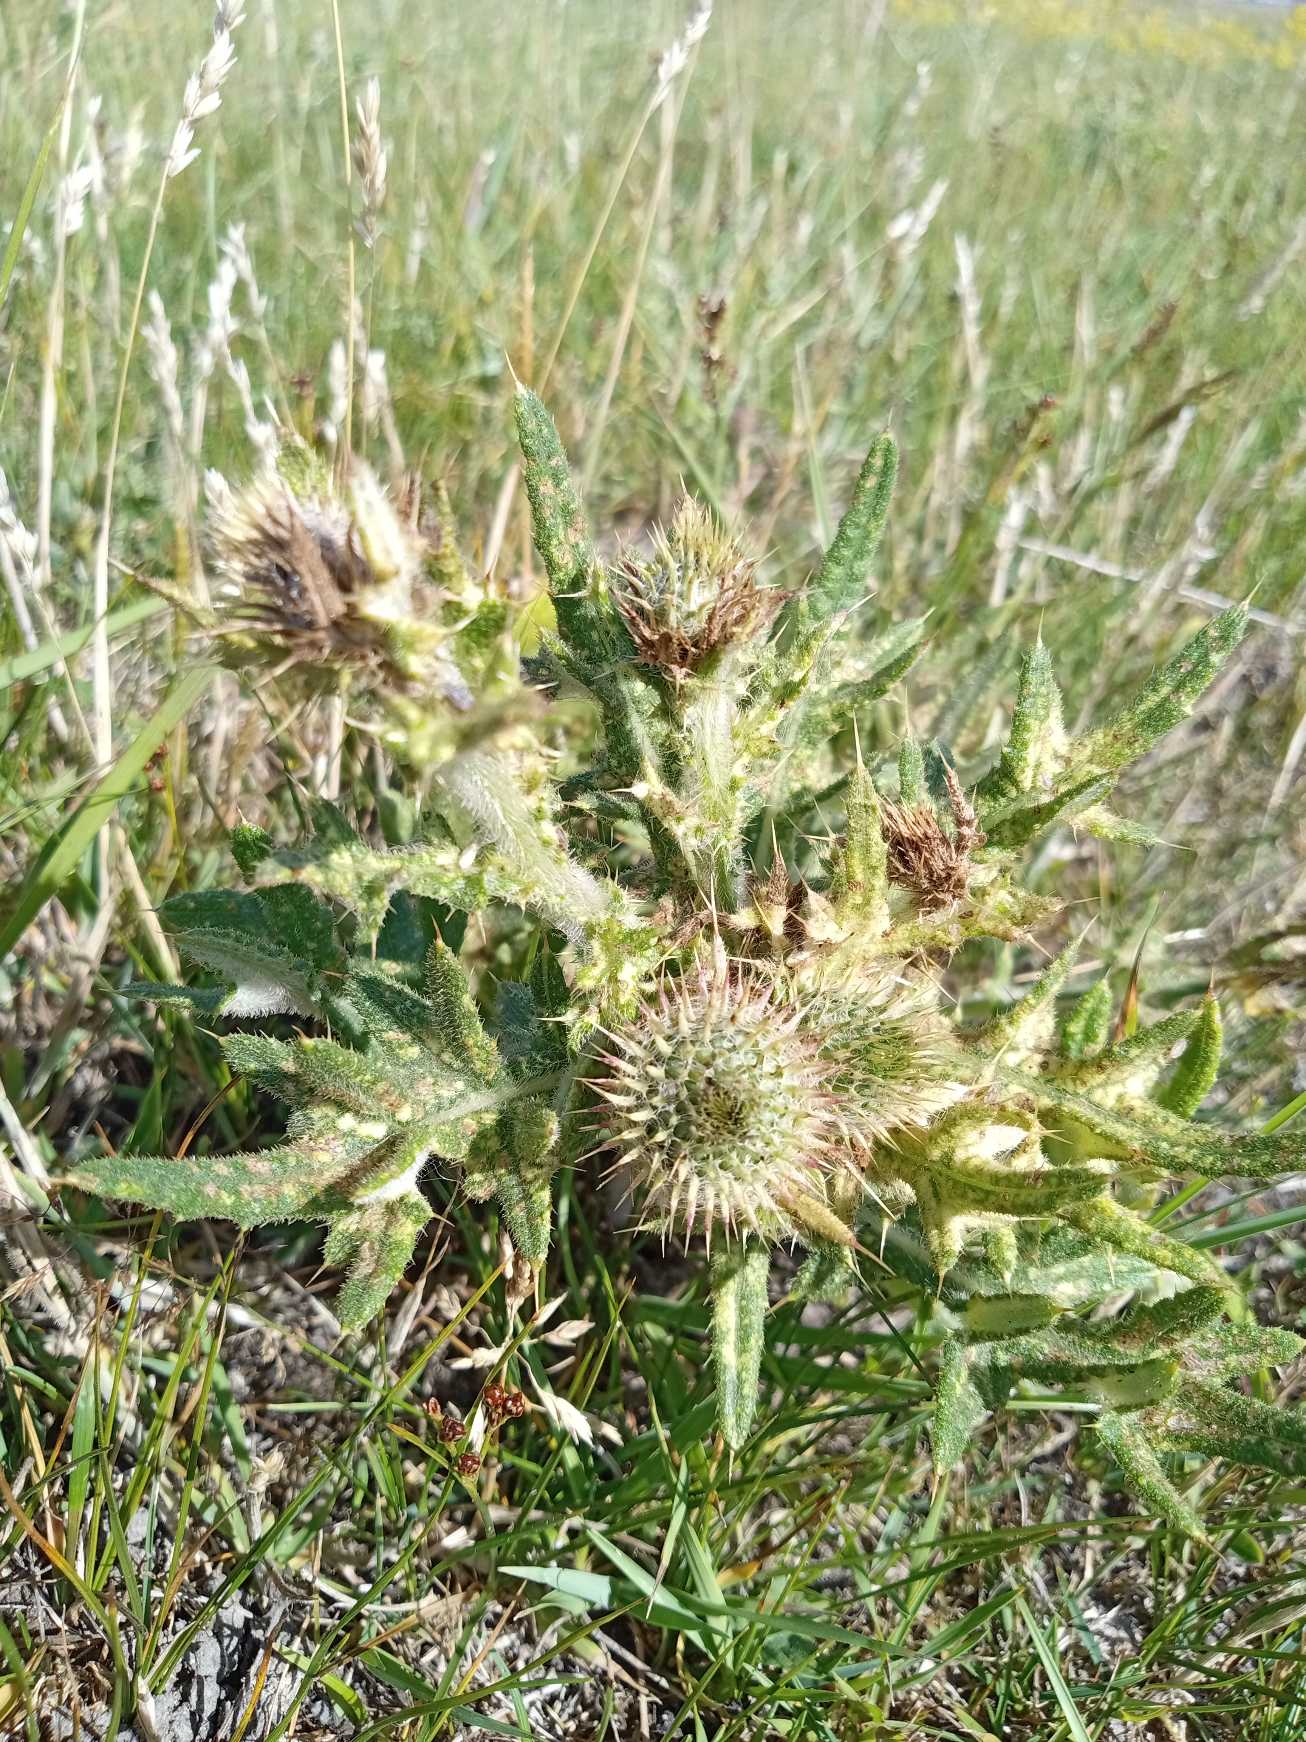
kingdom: Plantae
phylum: Tracheophyta
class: Magnoliopsida
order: Asterales
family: Asteraceae
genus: Cirsium
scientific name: Cirsium vulgare
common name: Horse-tidsel
